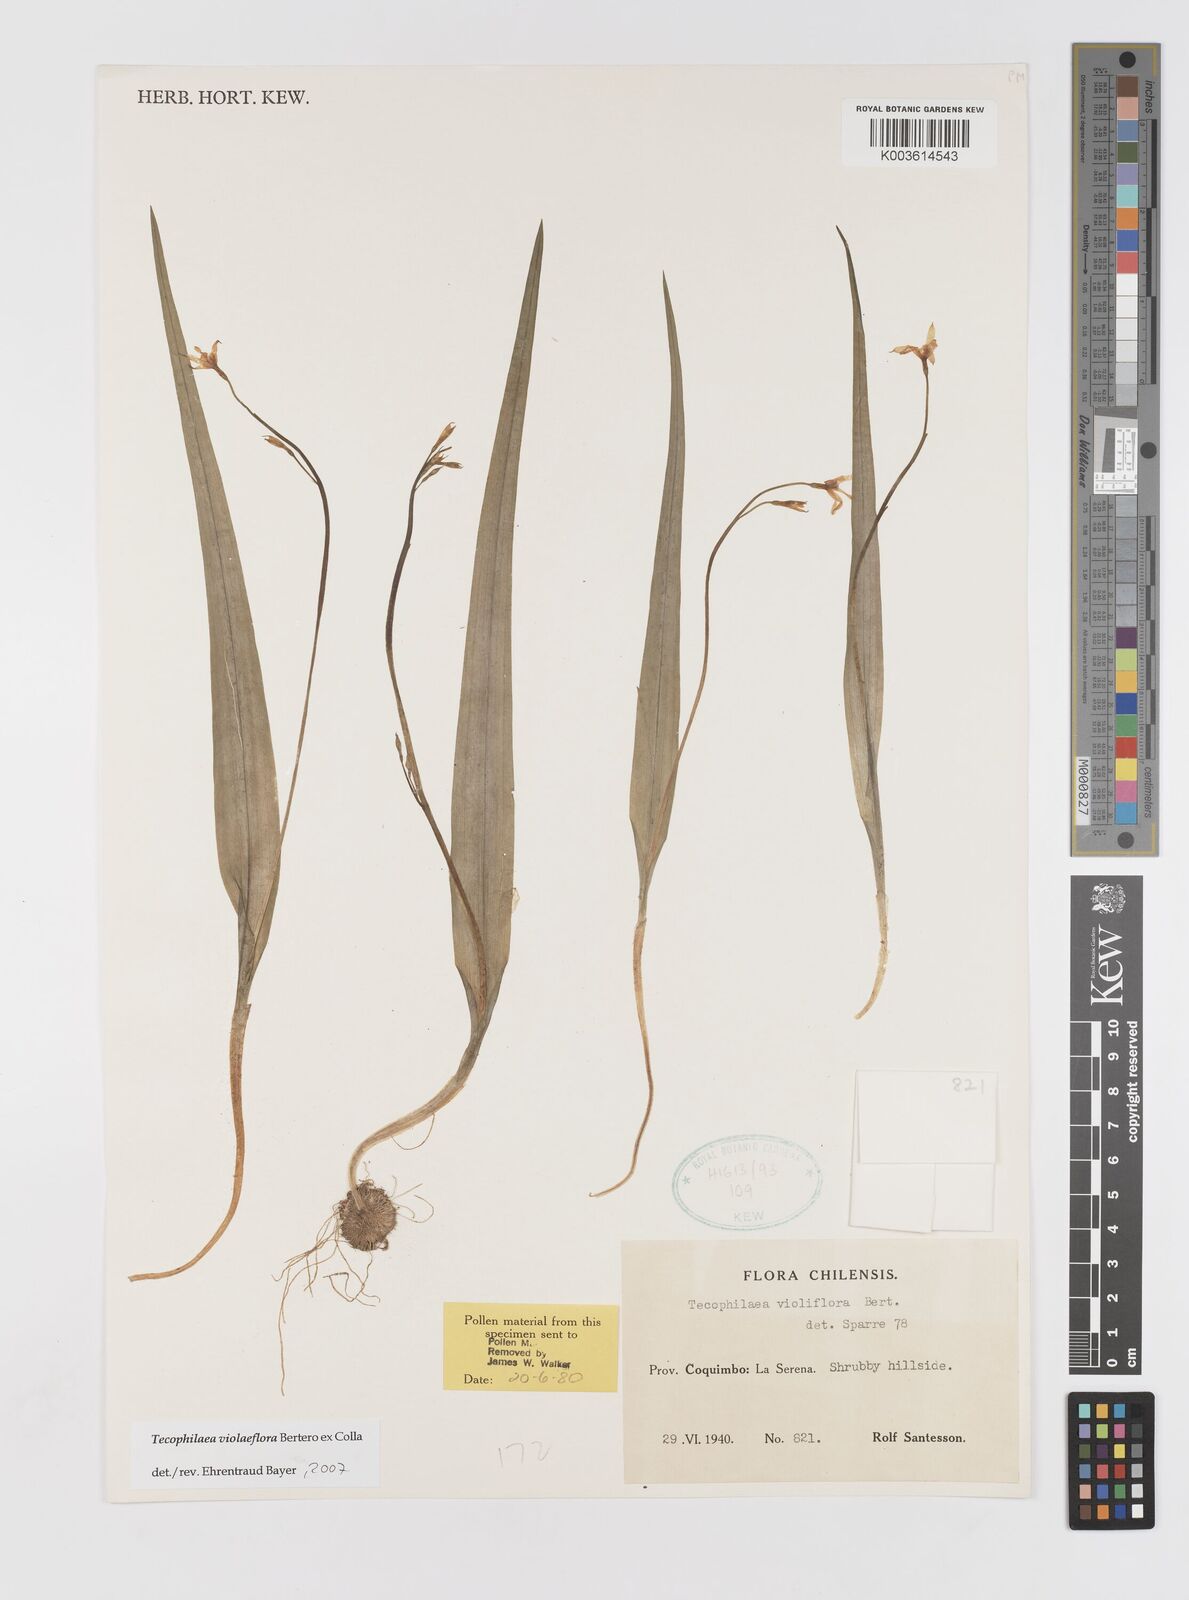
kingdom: Plantae
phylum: Tracheophyta
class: Liliopsida
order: Asparagales
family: Tecophilaeaceae
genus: Tecophilaea
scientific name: Tecophilaea violiflora
